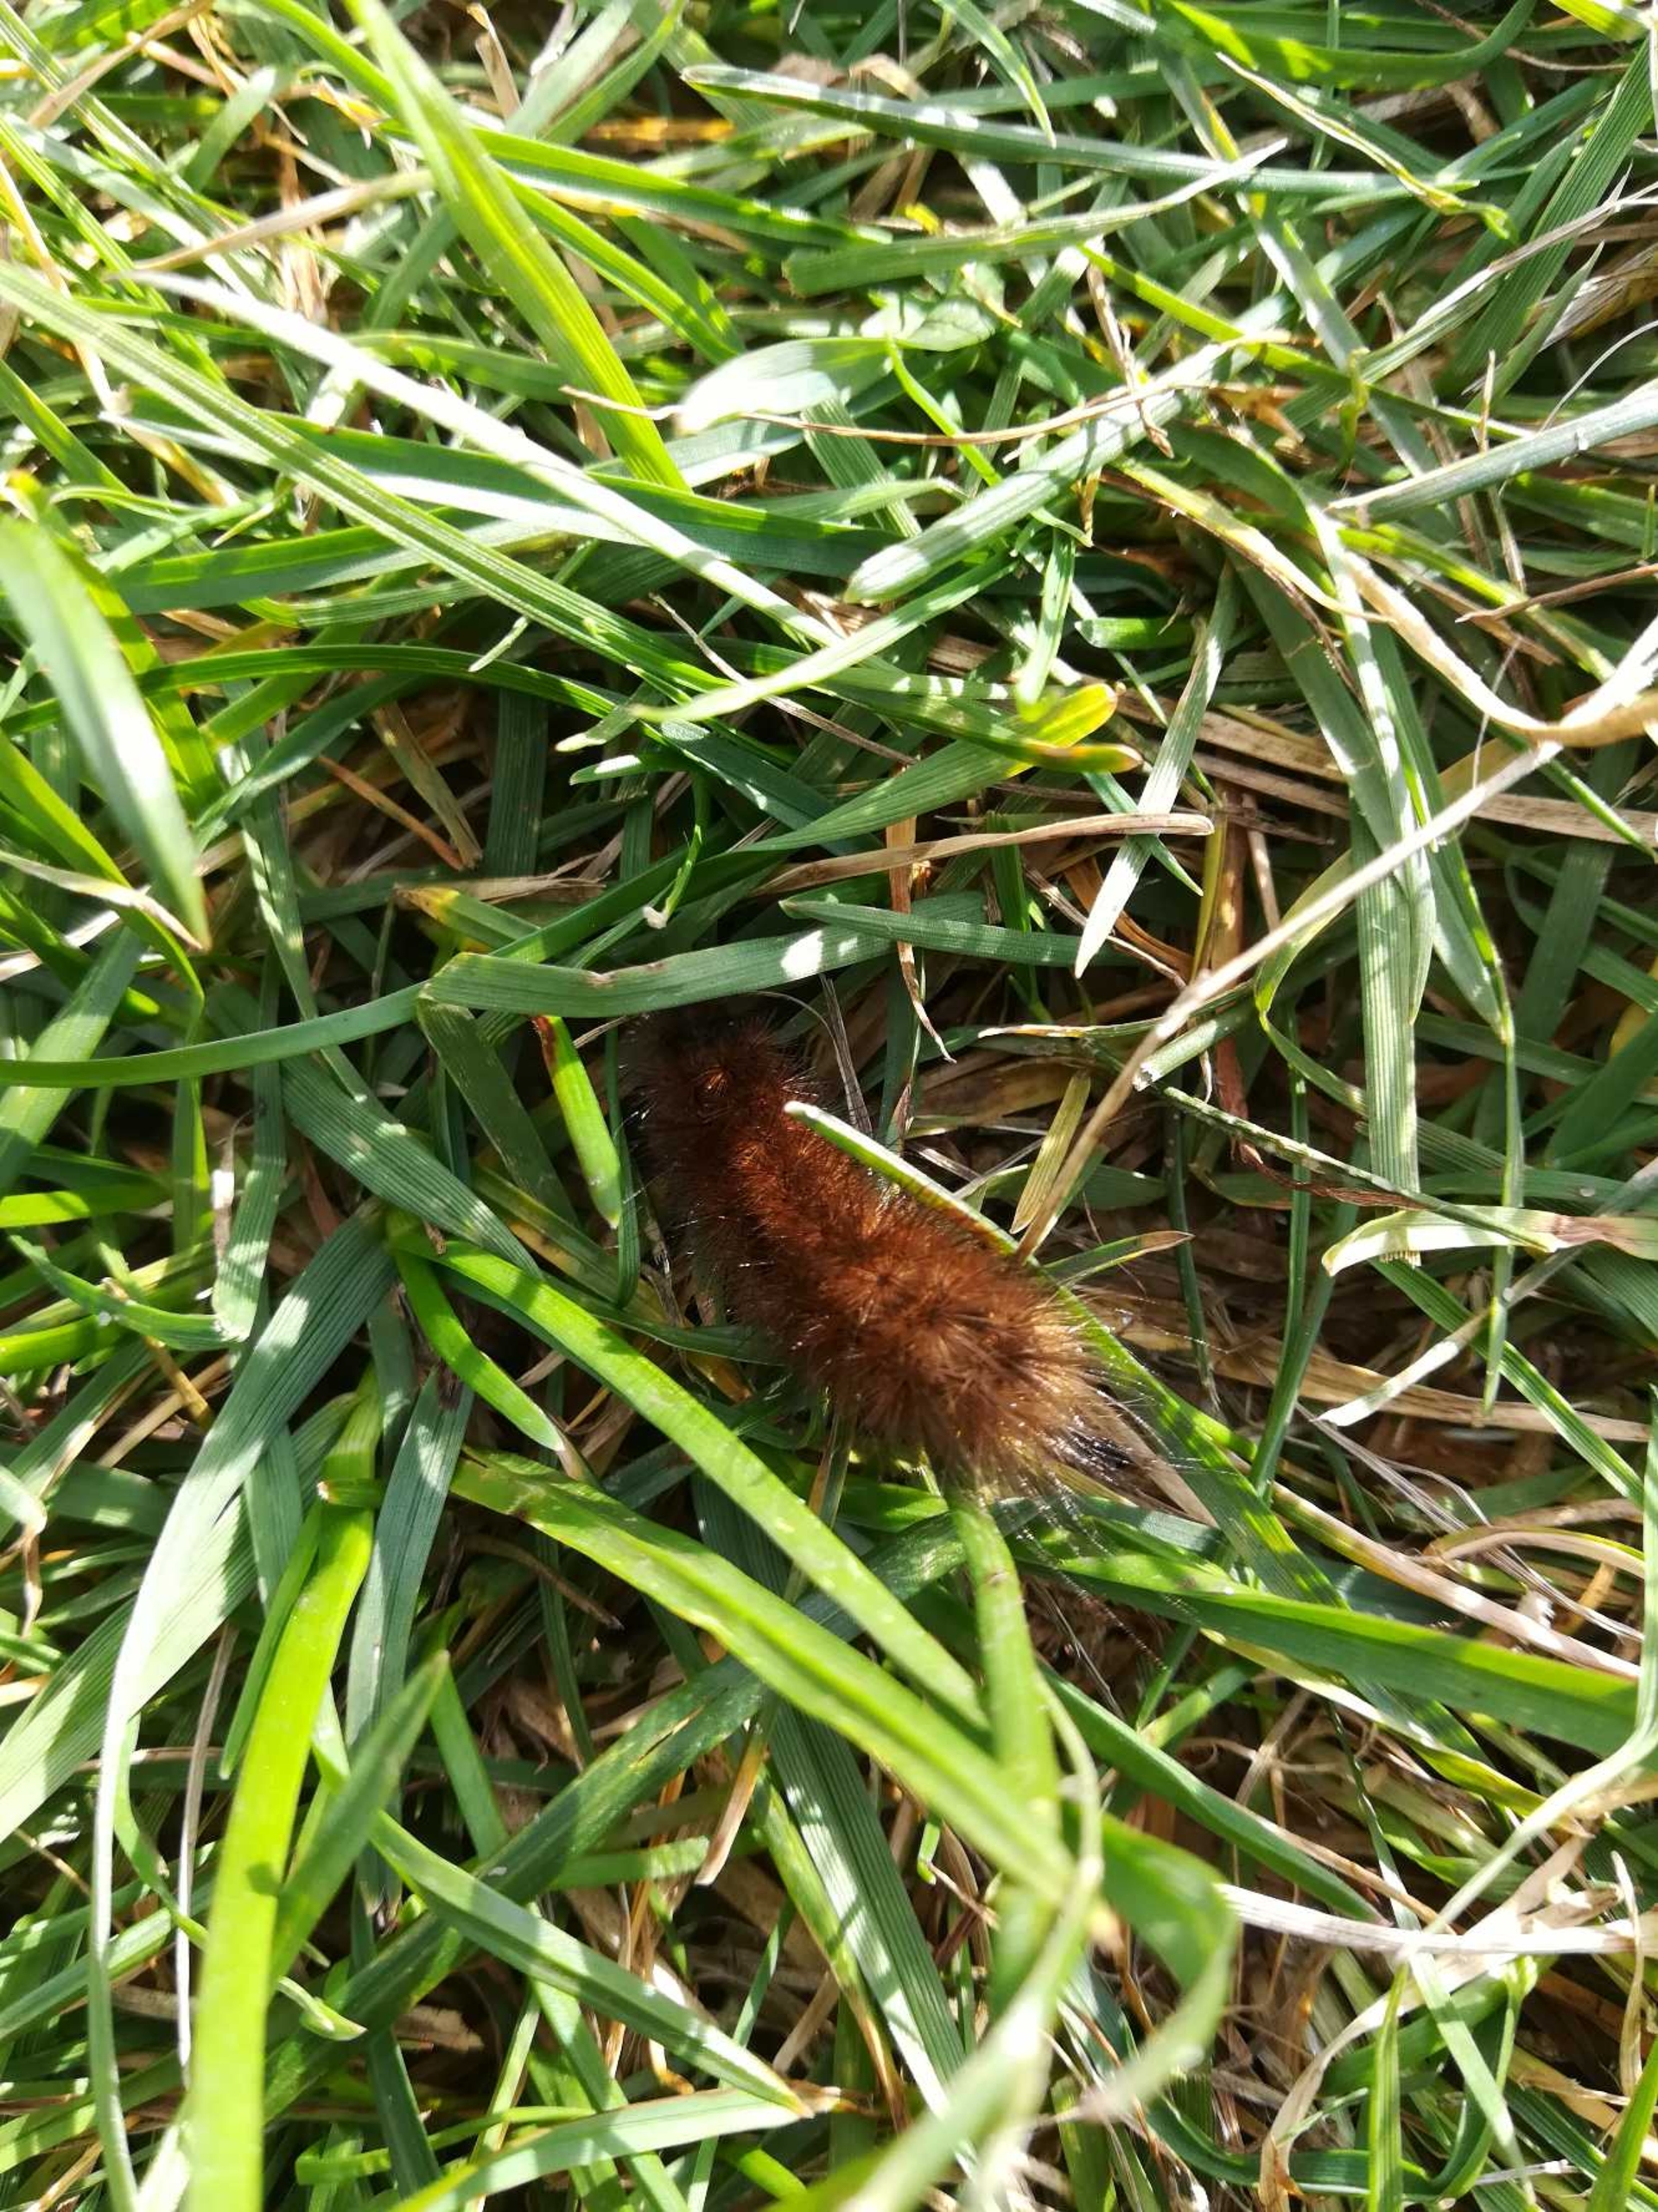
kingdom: Animalia
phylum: Arthropoda
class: Insecta
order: Lepidoptera
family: Erebidae
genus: Phragmatobia
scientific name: Phragmatobia fuliginosa
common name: Kanelbjørn
